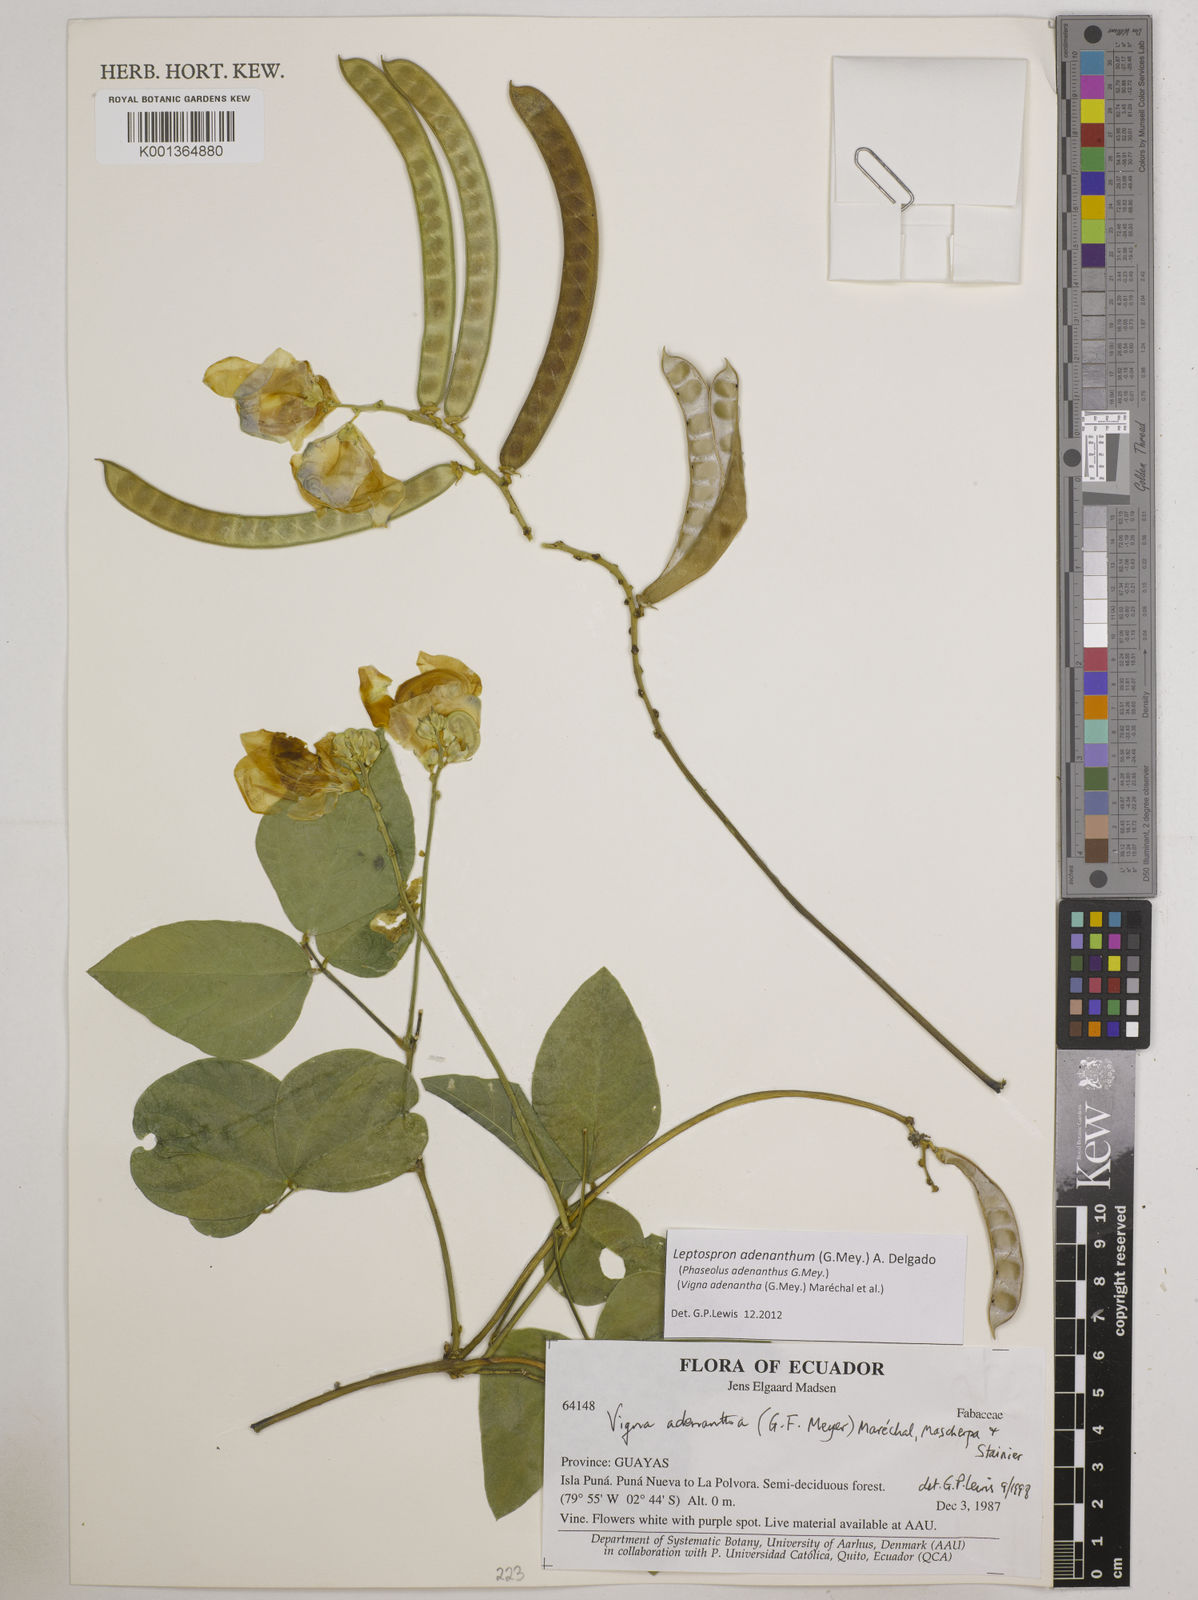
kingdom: Plantae
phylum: Tracheophyta
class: Magnoliopsida
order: Fabales
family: Fabaceae
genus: Leptospron
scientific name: Leptospron adenanthum
